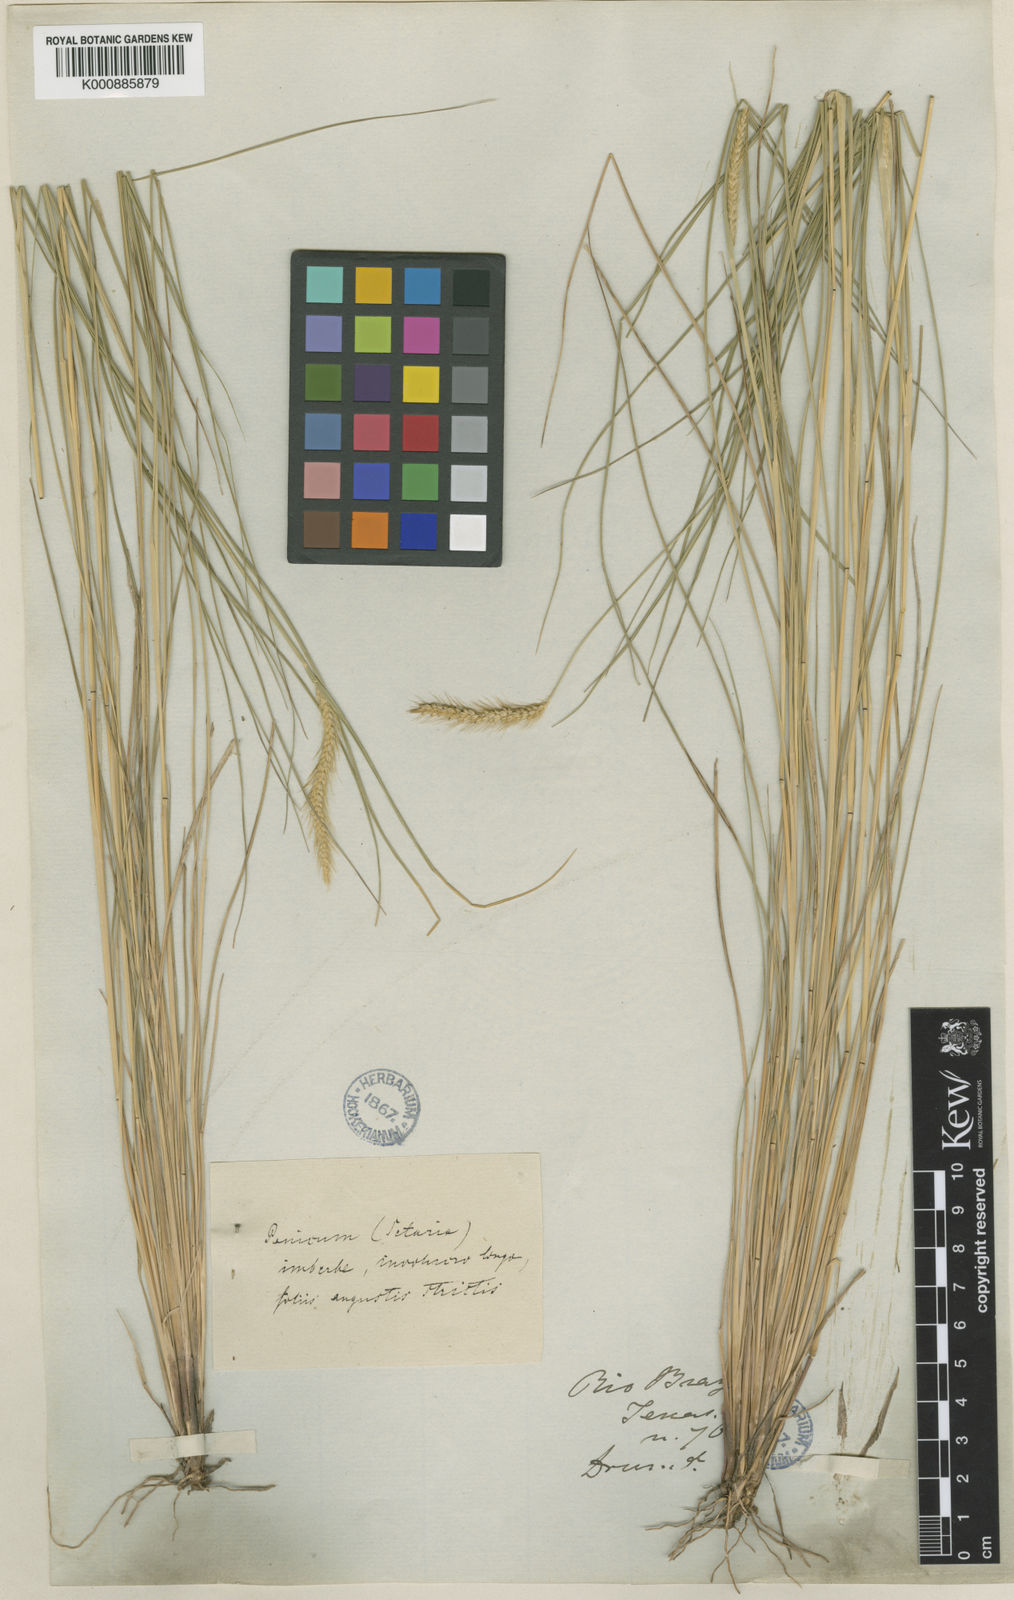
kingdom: Plantae
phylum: Tracheophyta
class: Liliopsida
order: Poales
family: Poaceae
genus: Setaria
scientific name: Setaria
